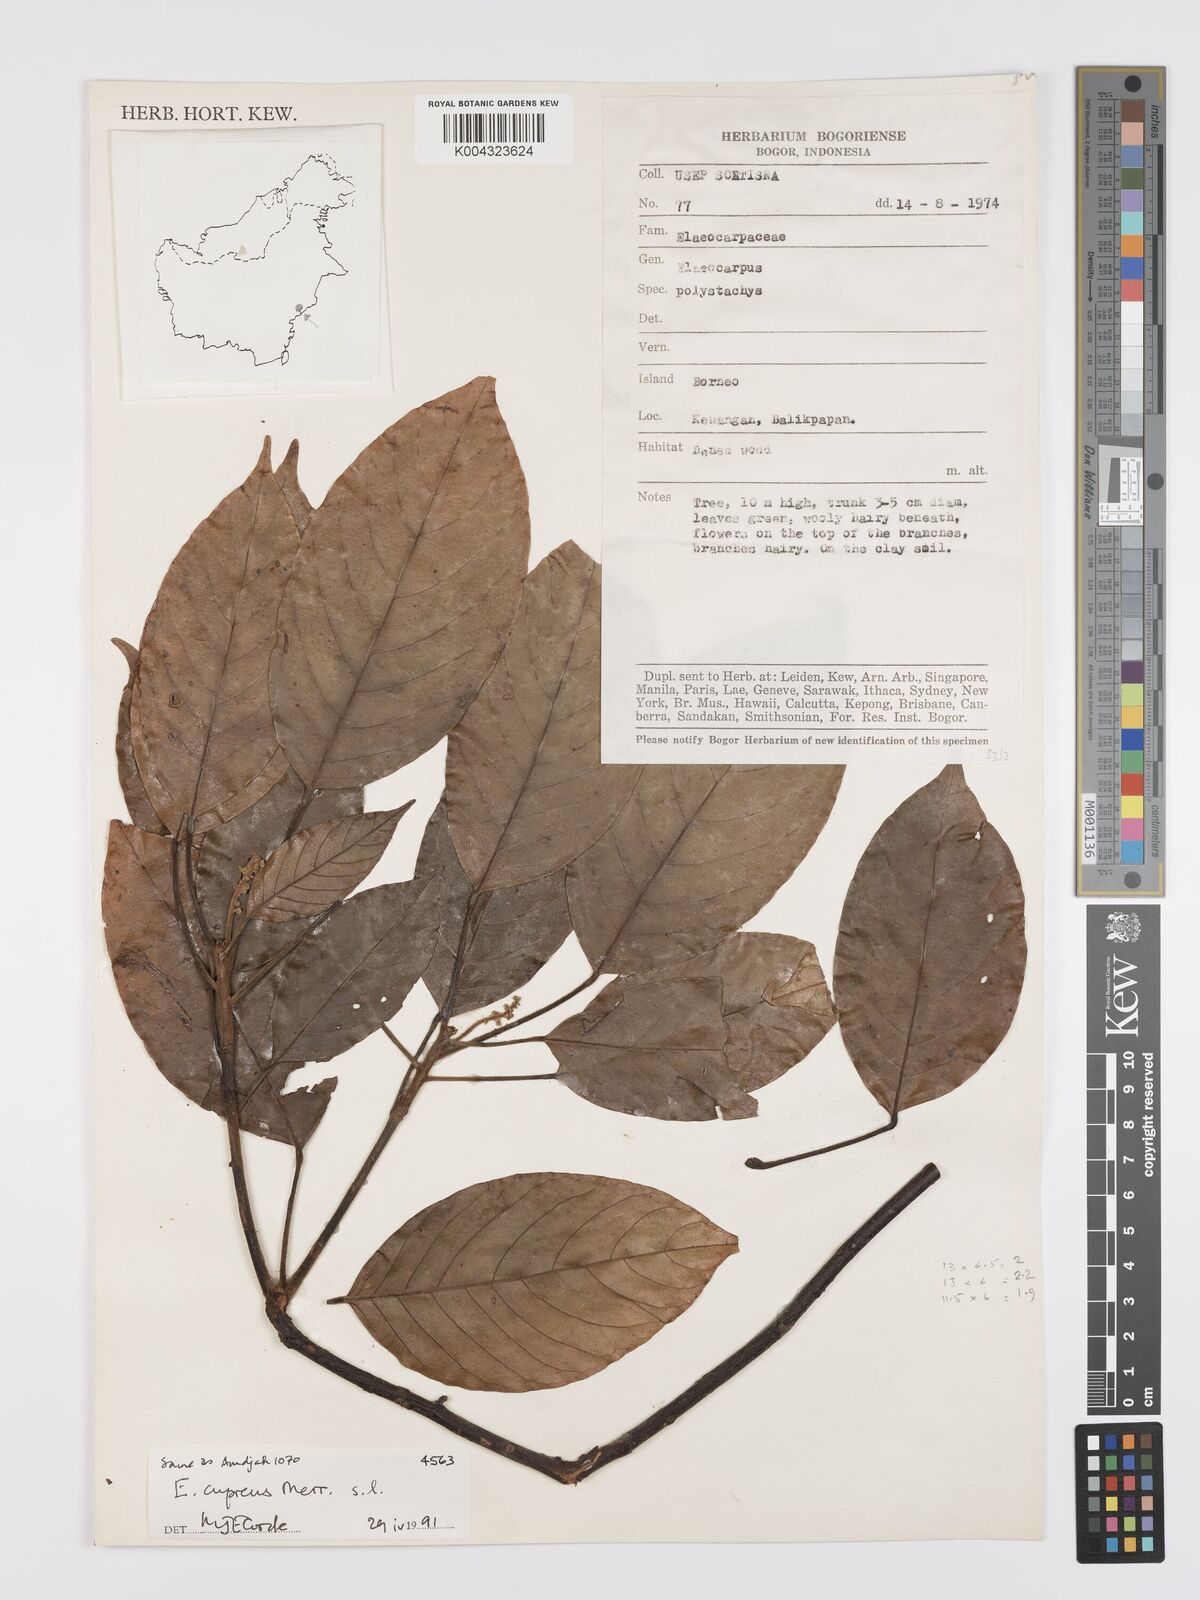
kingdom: Plantae
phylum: Tracheophyta
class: Magnoliopsida
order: Oxalidales
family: Elaeocarpaceae
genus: Elaeocarpus
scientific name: Elaeocarpus cupreus
